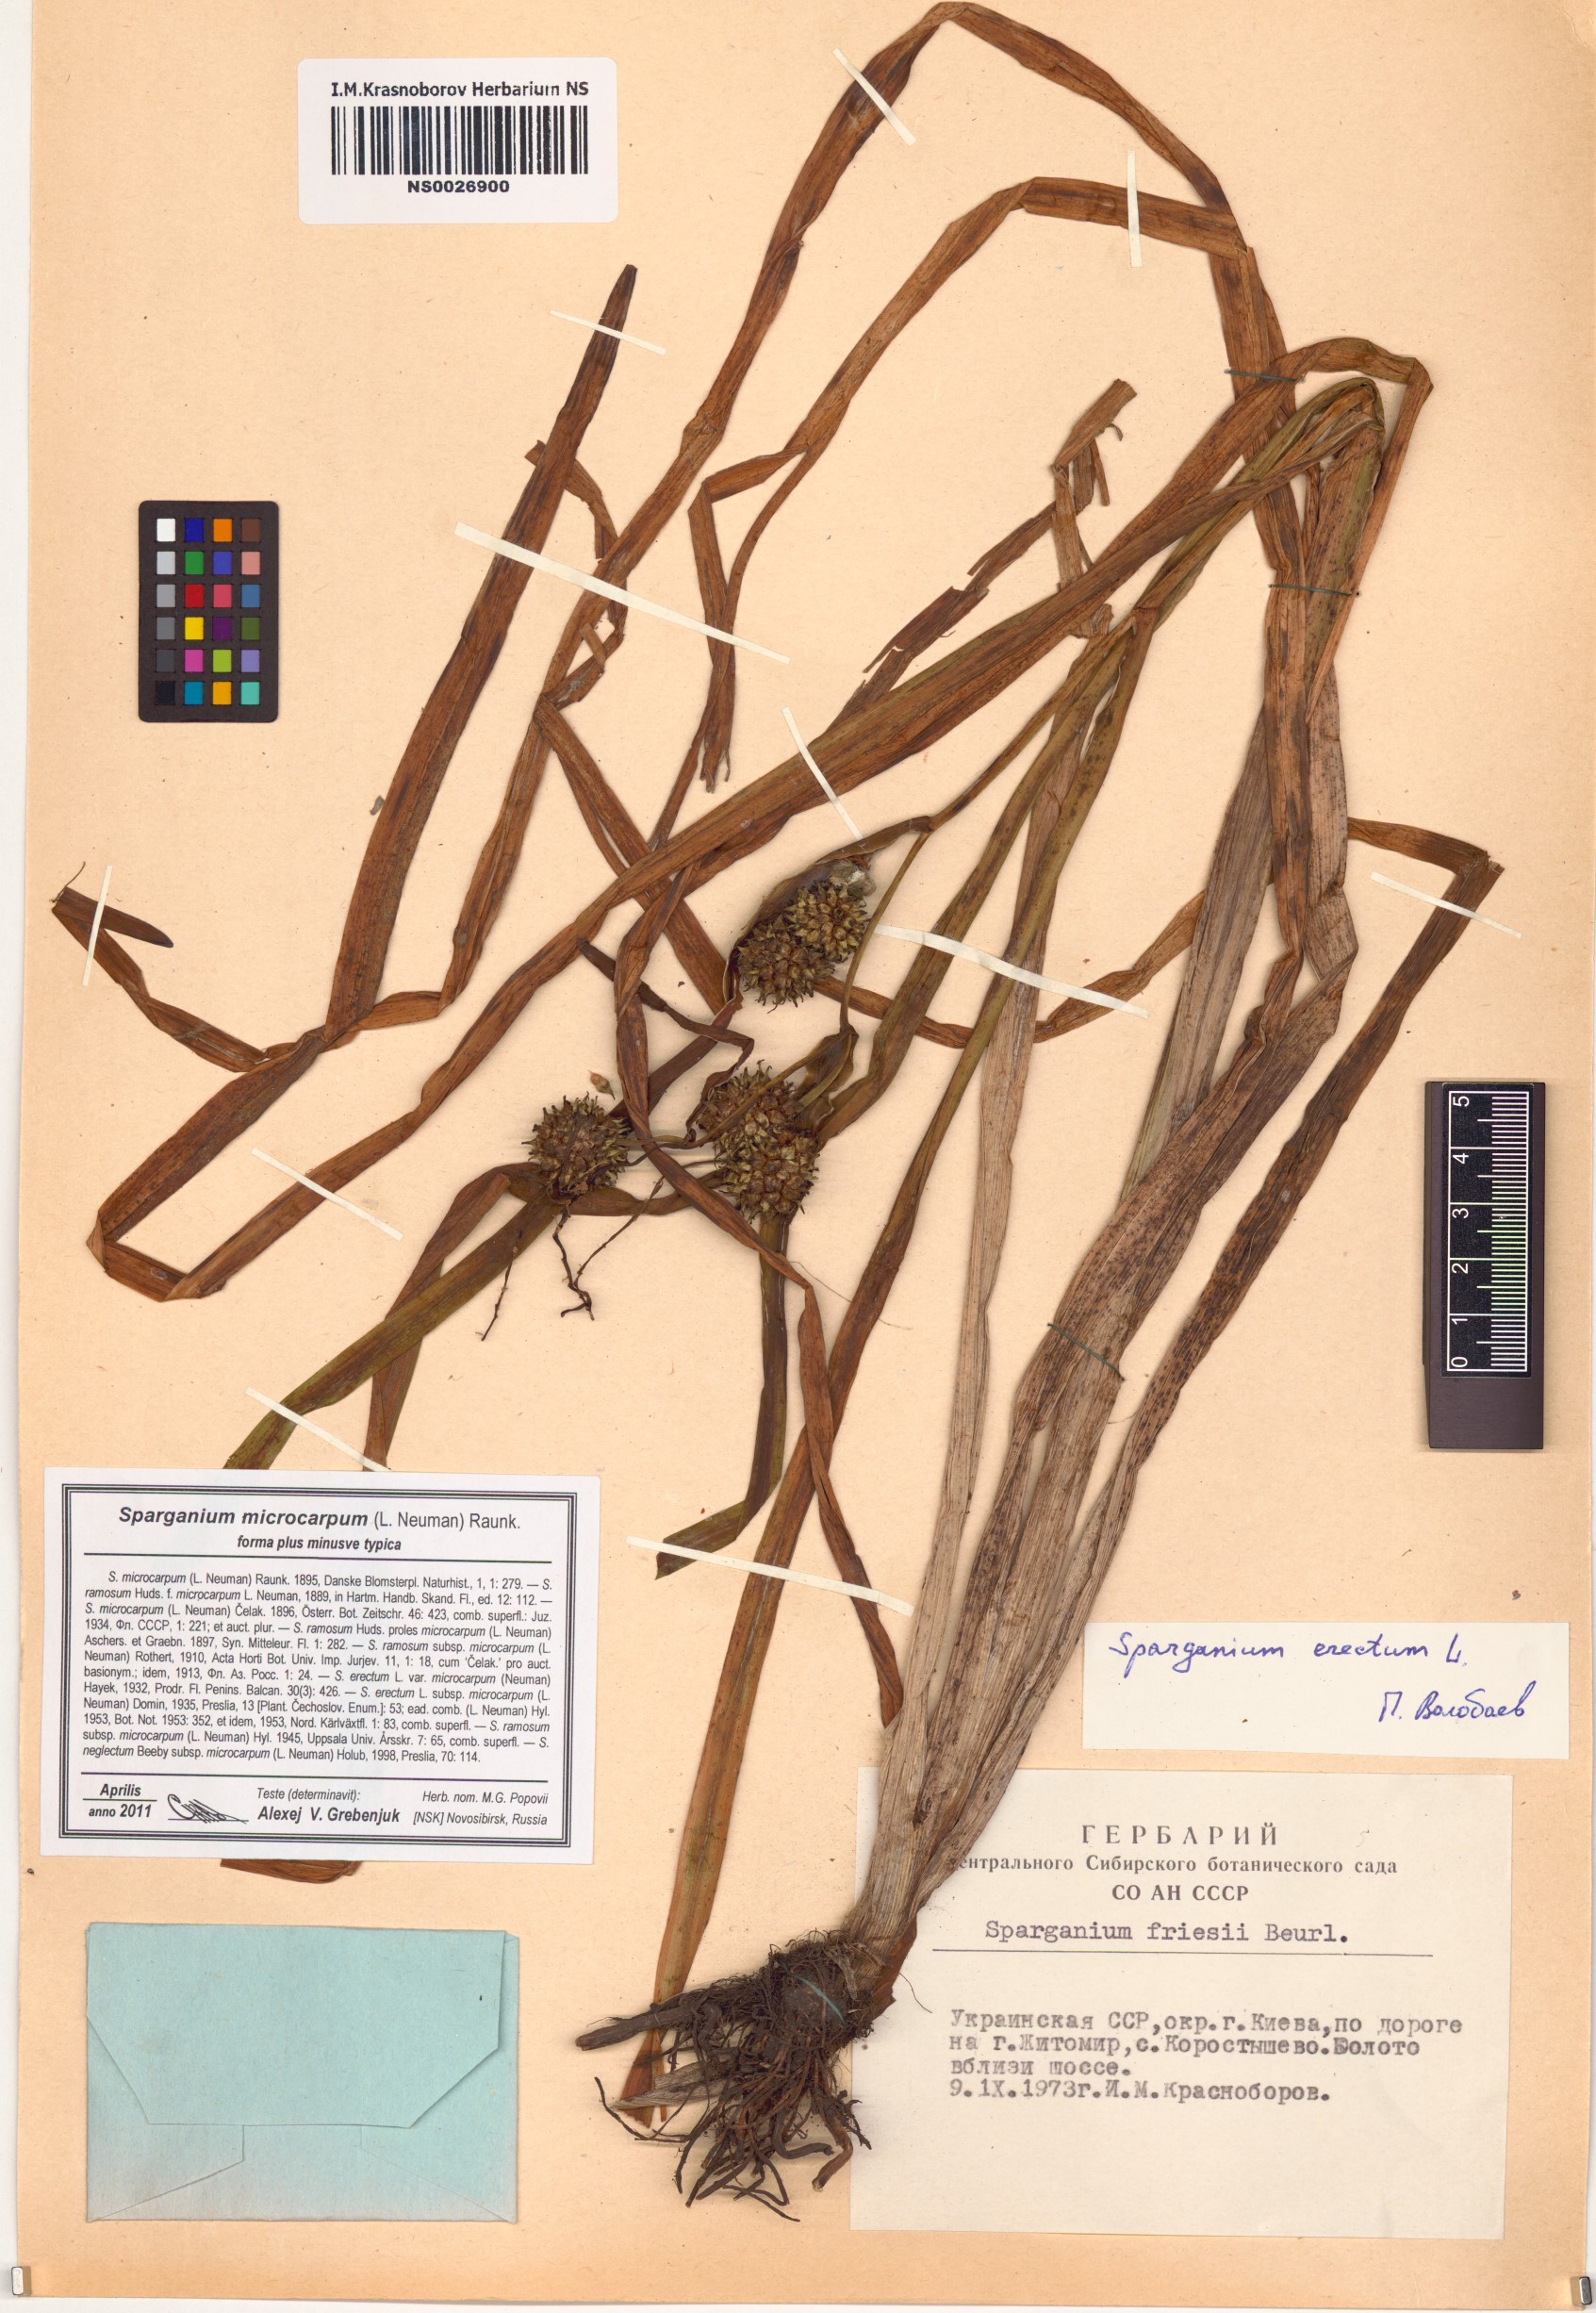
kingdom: Plantae
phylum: Tracheophyta
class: Liliopsida
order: Poales
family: Typhaceae
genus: Sparganium
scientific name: Sparganium erectum
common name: Branched bur-reed
